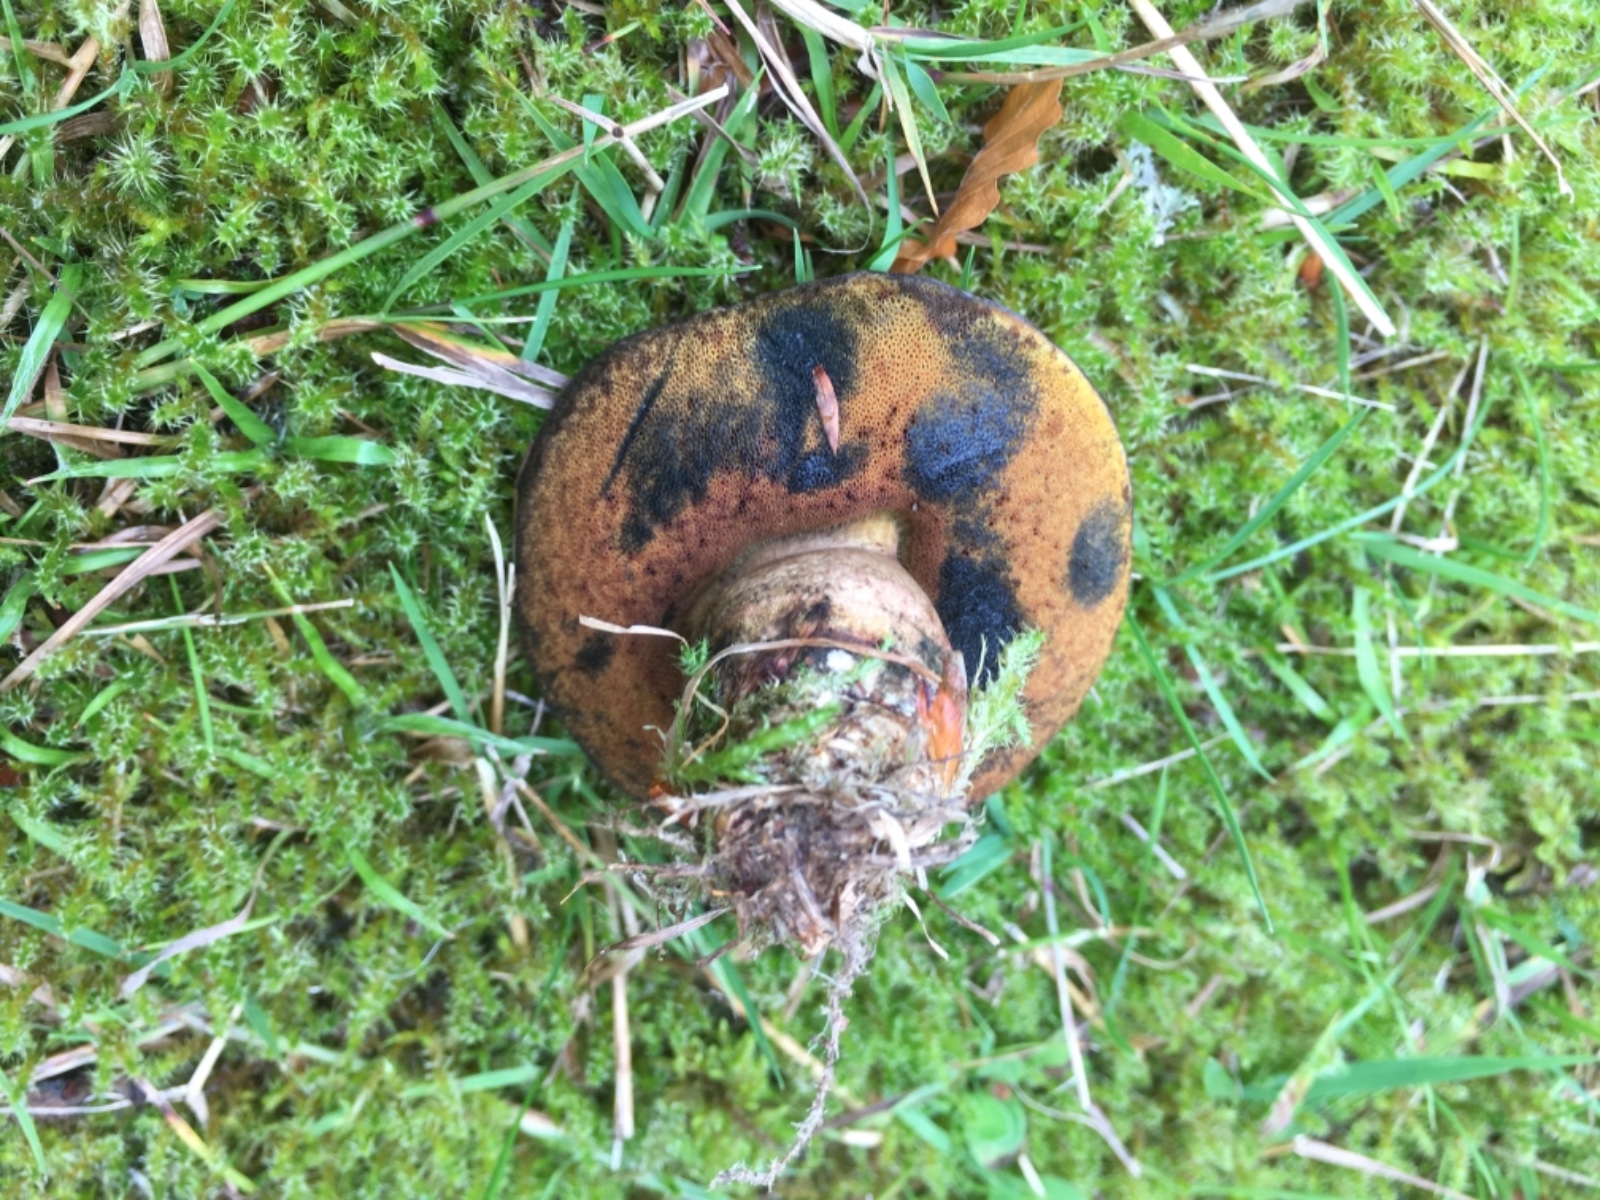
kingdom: Fungi
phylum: Basidiomycota
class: Agaricomycetes
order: Boletales
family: Boletaceae
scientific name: Boletaceae
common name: rørhatfamilien
